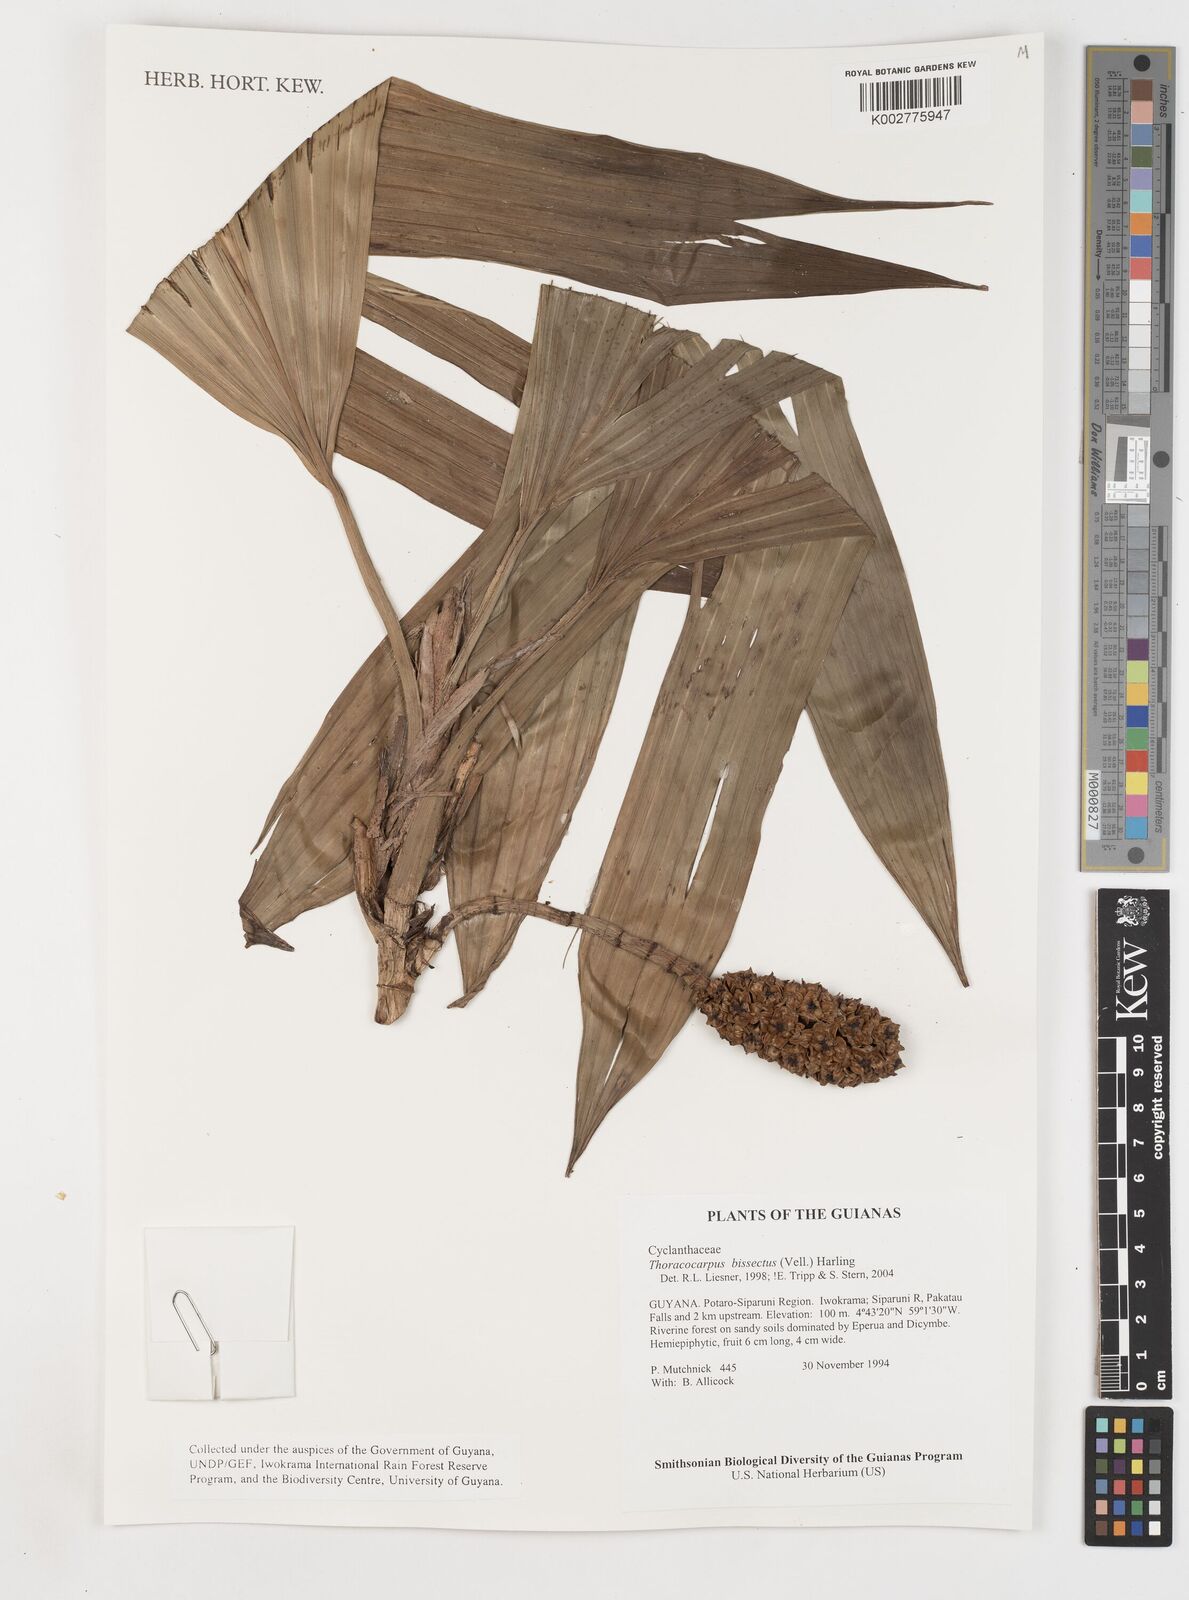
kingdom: Plantae
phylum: Tracheophyta
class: Liliopsida
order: Pandanales
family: Cyclanthaceae
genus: Thoracocarpus
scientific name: Thoracocarpus bissectus
